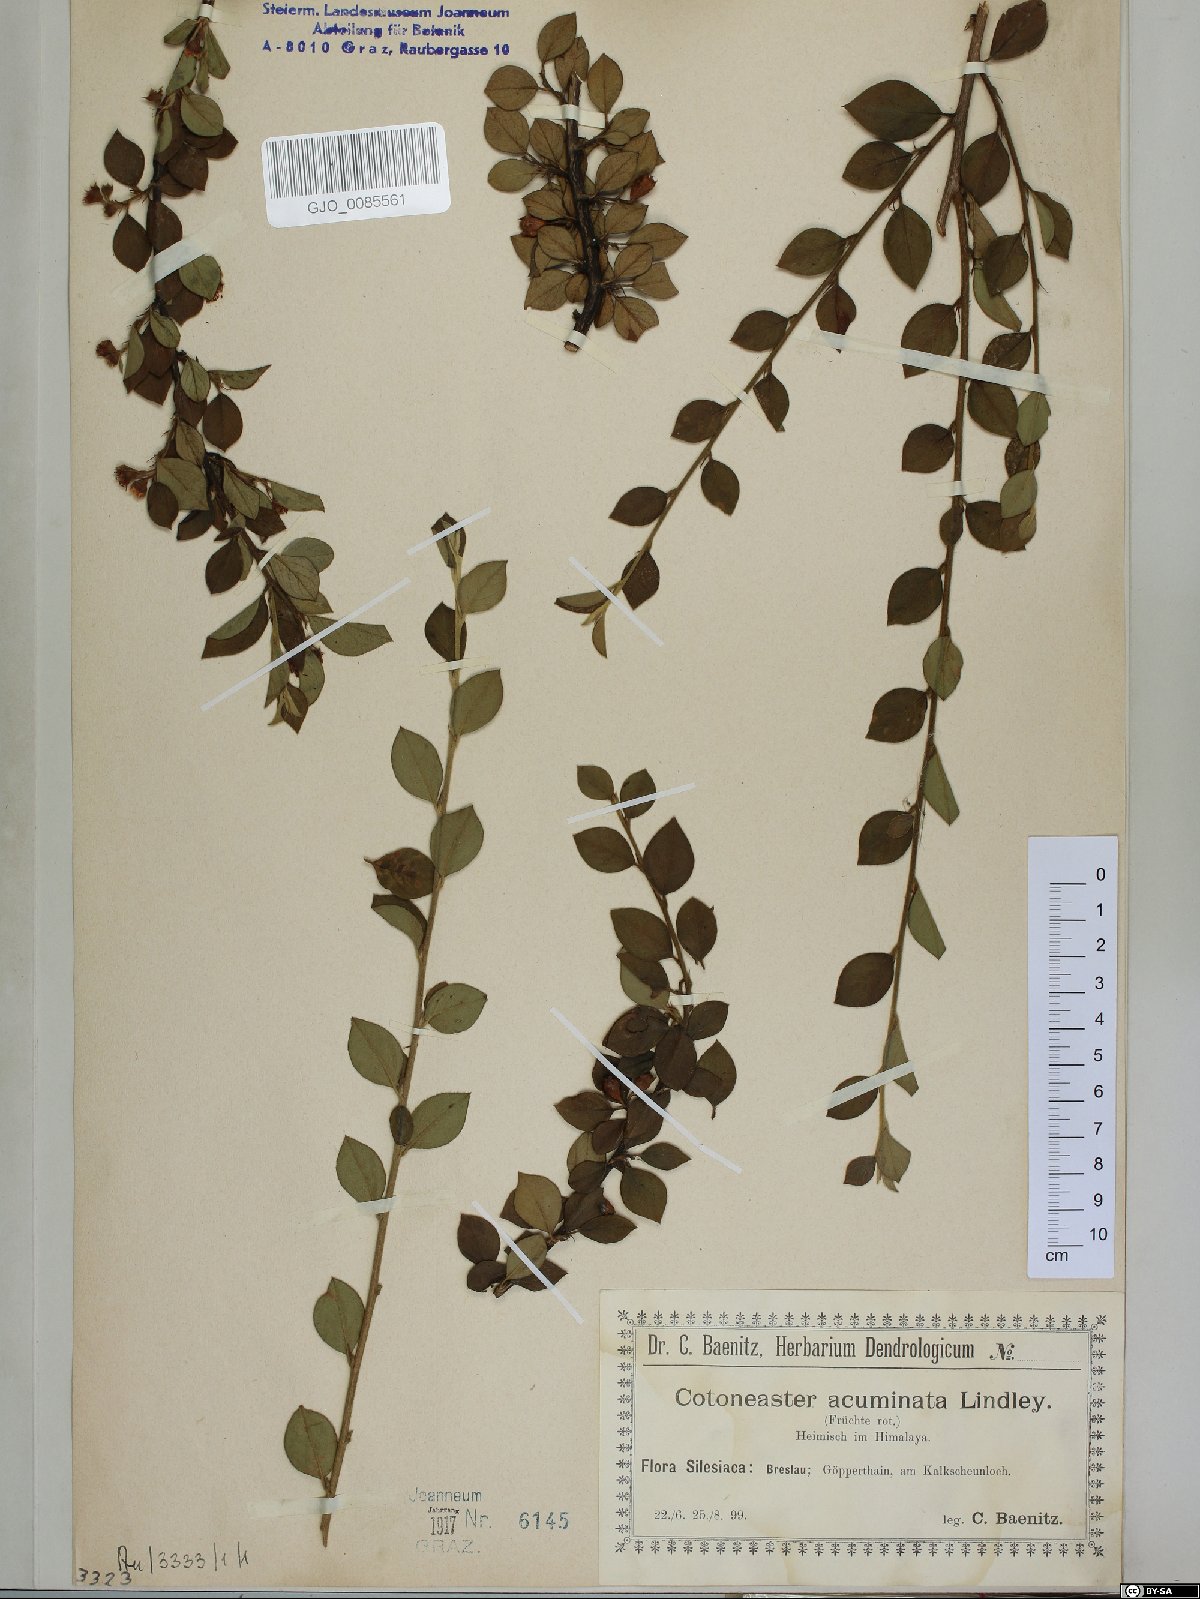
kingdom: Plantae
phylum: Tracheophyta
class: Magnoliopsida
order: Rosales
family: Rosaceae
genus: Cotoneaster
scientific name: Cotoneaster acuminatus
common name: Acuminate cotoneaster
